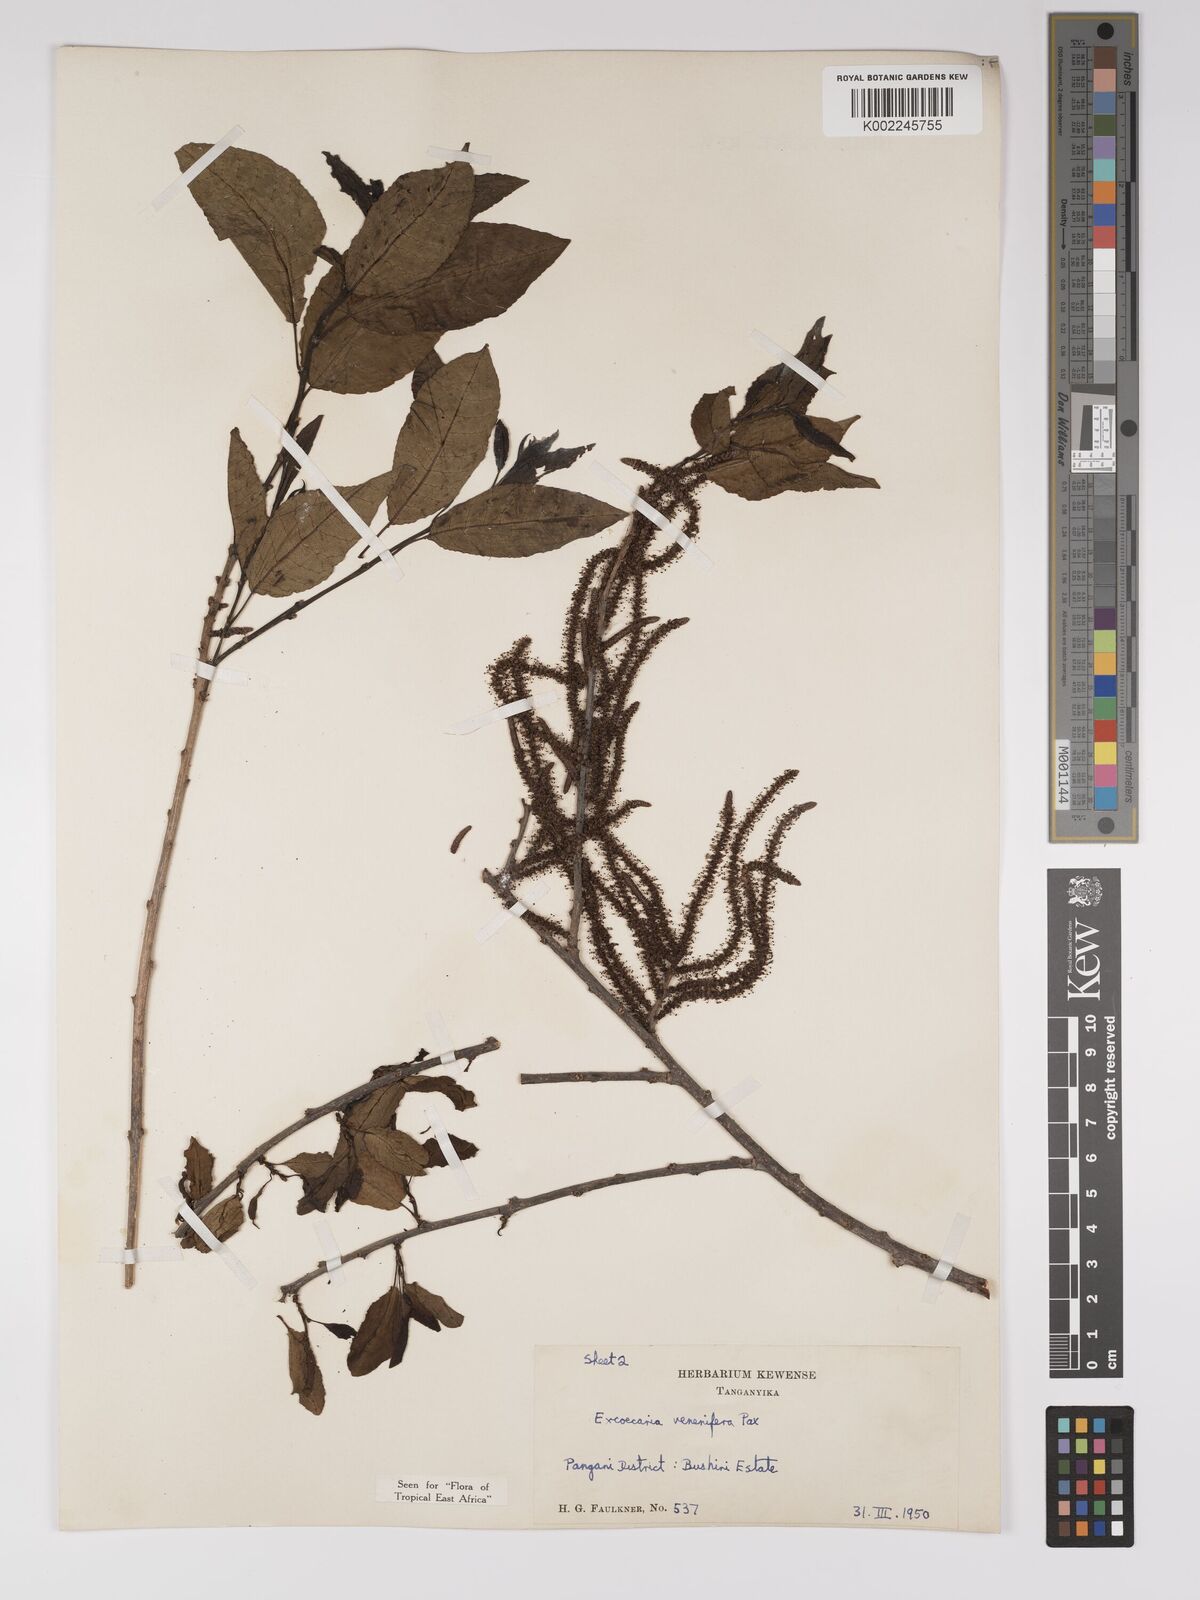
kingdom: Plantae
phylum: Tracheophyta
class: Magnoliopsida
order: Malpighiales
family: Euphorbiaceae
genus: Spirostachys
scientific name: Spirostachys venenifera
